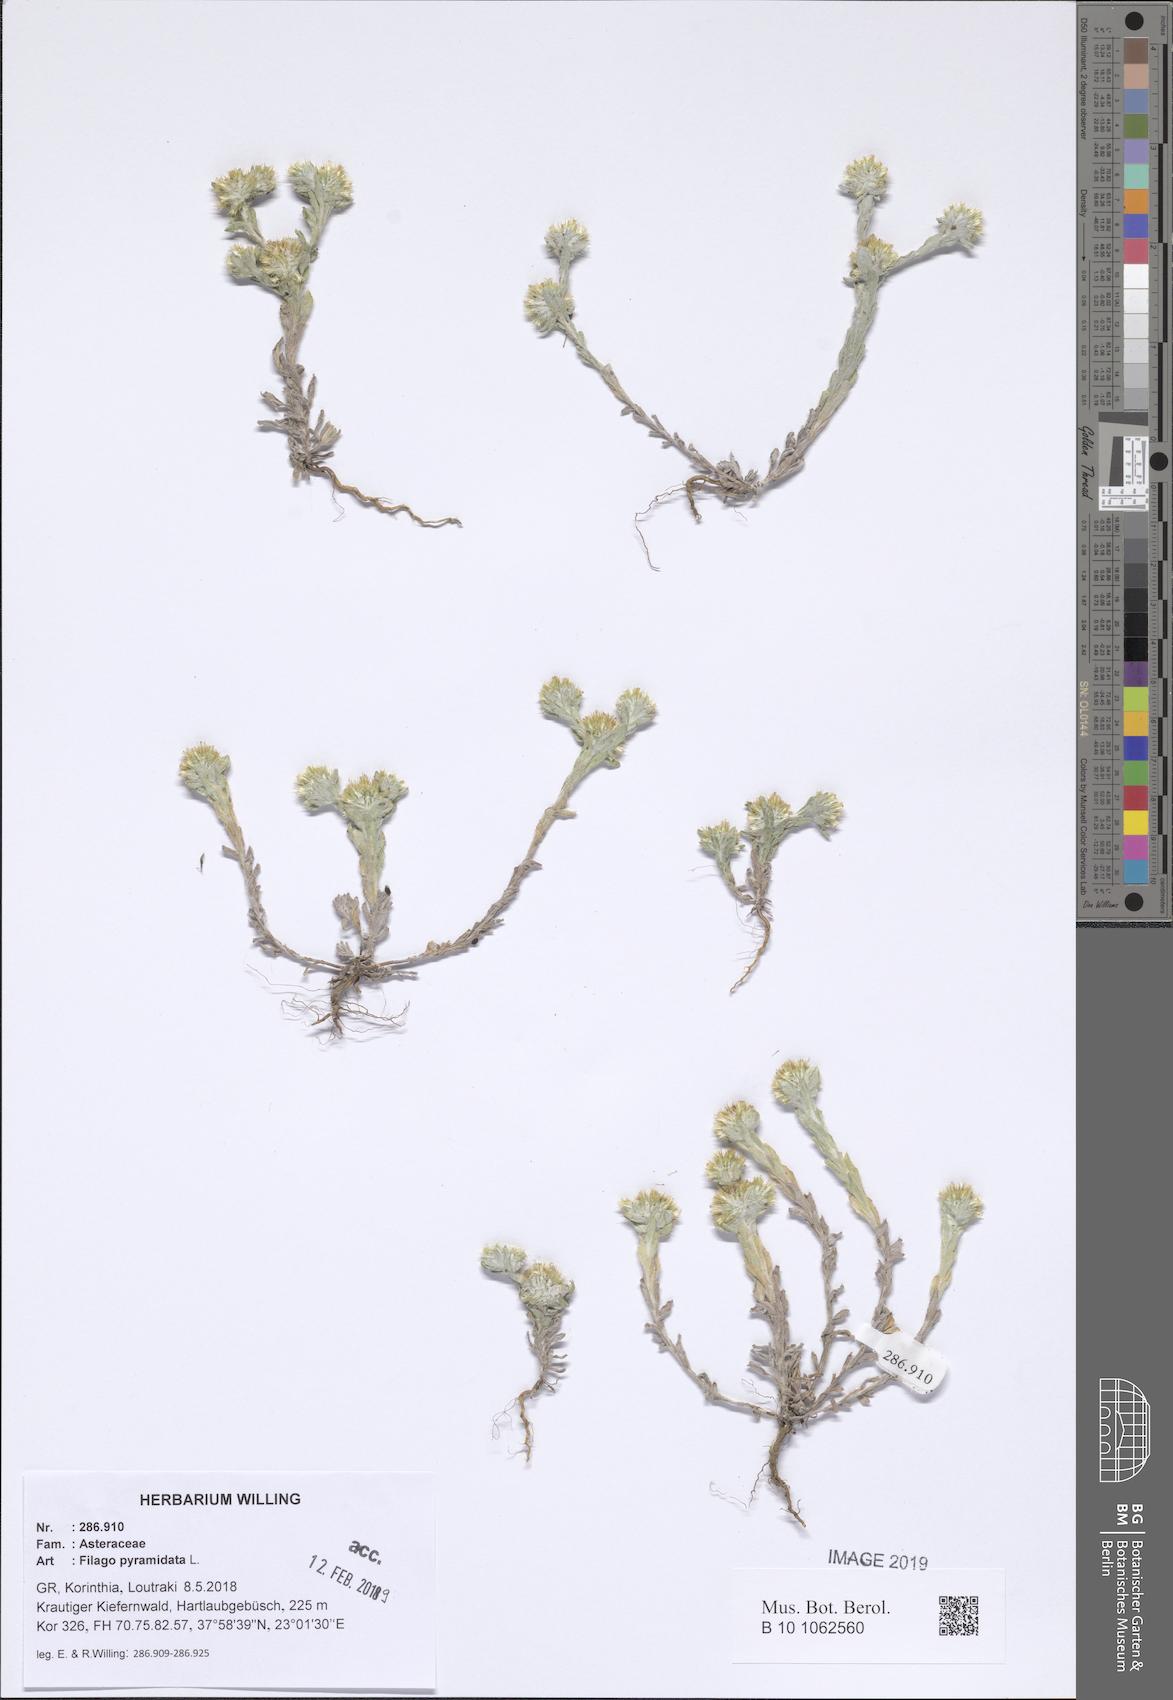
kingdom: Plantae
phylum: Tracheophyta
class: Magnoliopsida
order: Asterales
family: Asteraceae
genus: Filago
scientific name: Filago pyramidata
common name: Broad-leaved cudweed
